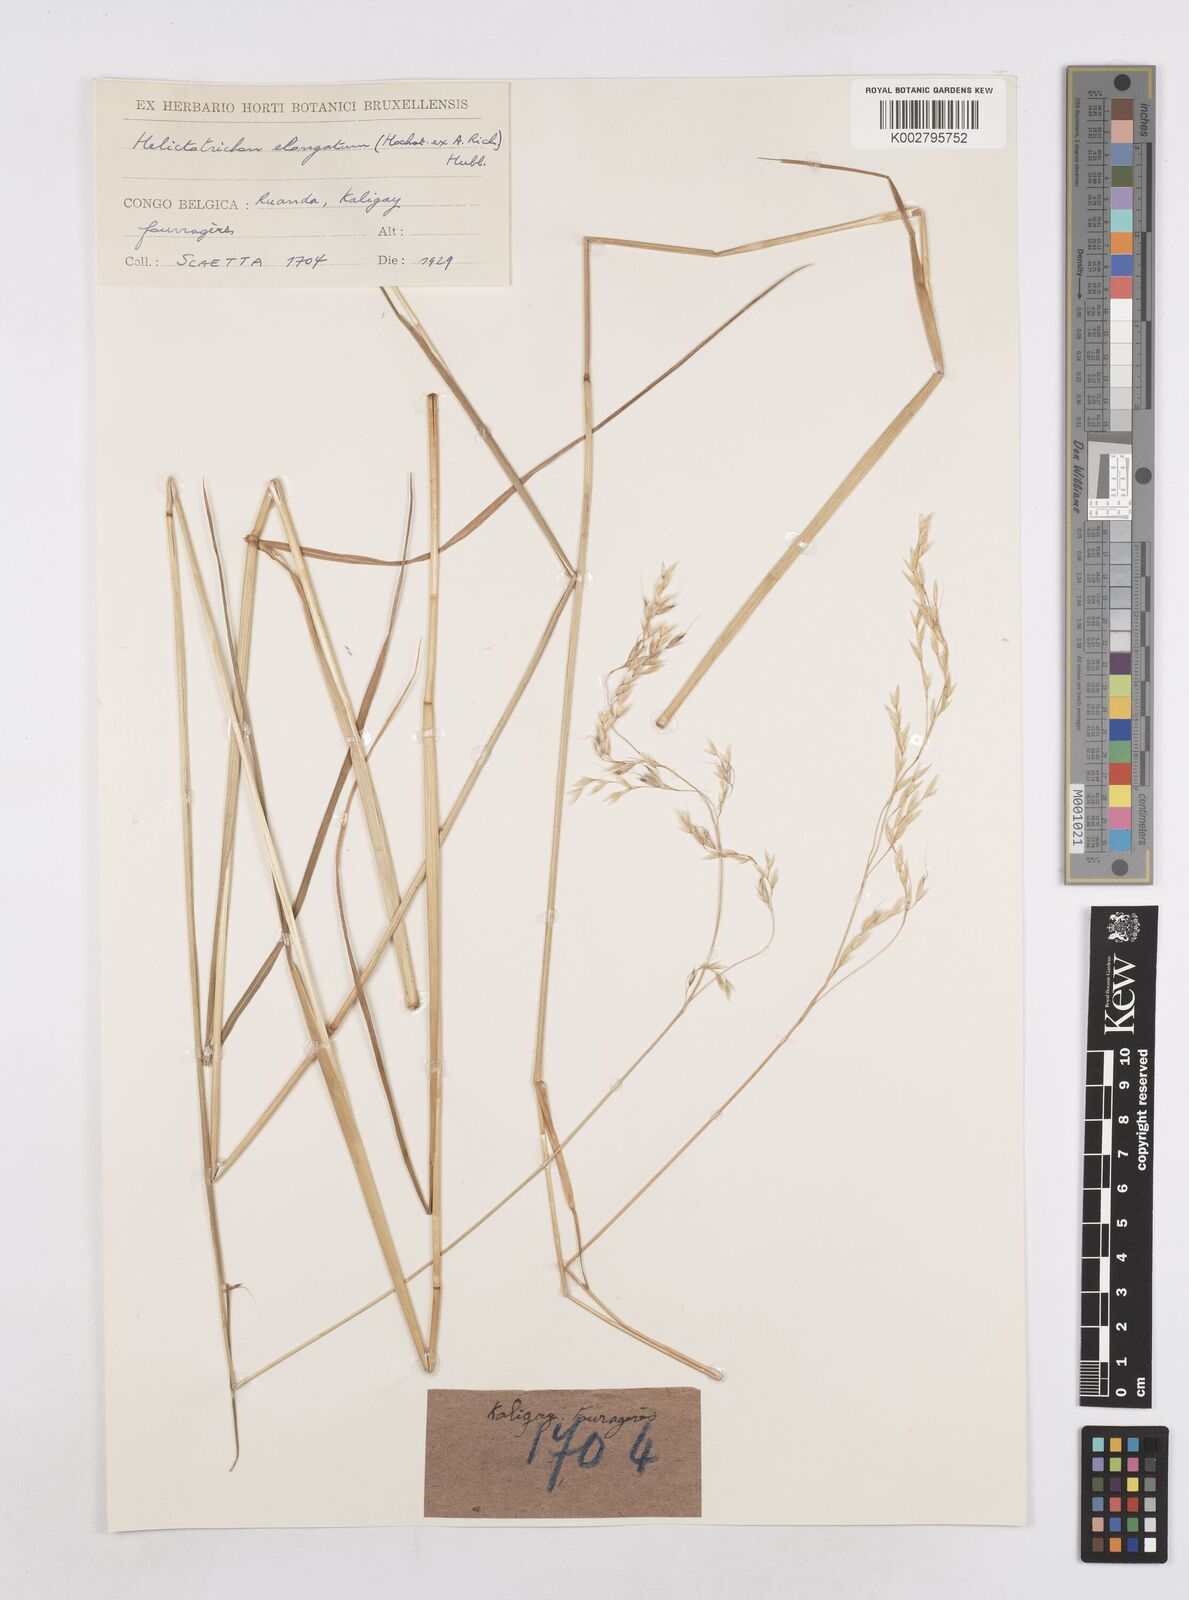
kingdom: Plantae
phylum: Tracheophyta
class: Liliopsida
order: Poales
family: Poaceae
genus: Trisetopsis
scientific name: Trisetopsis elongata
